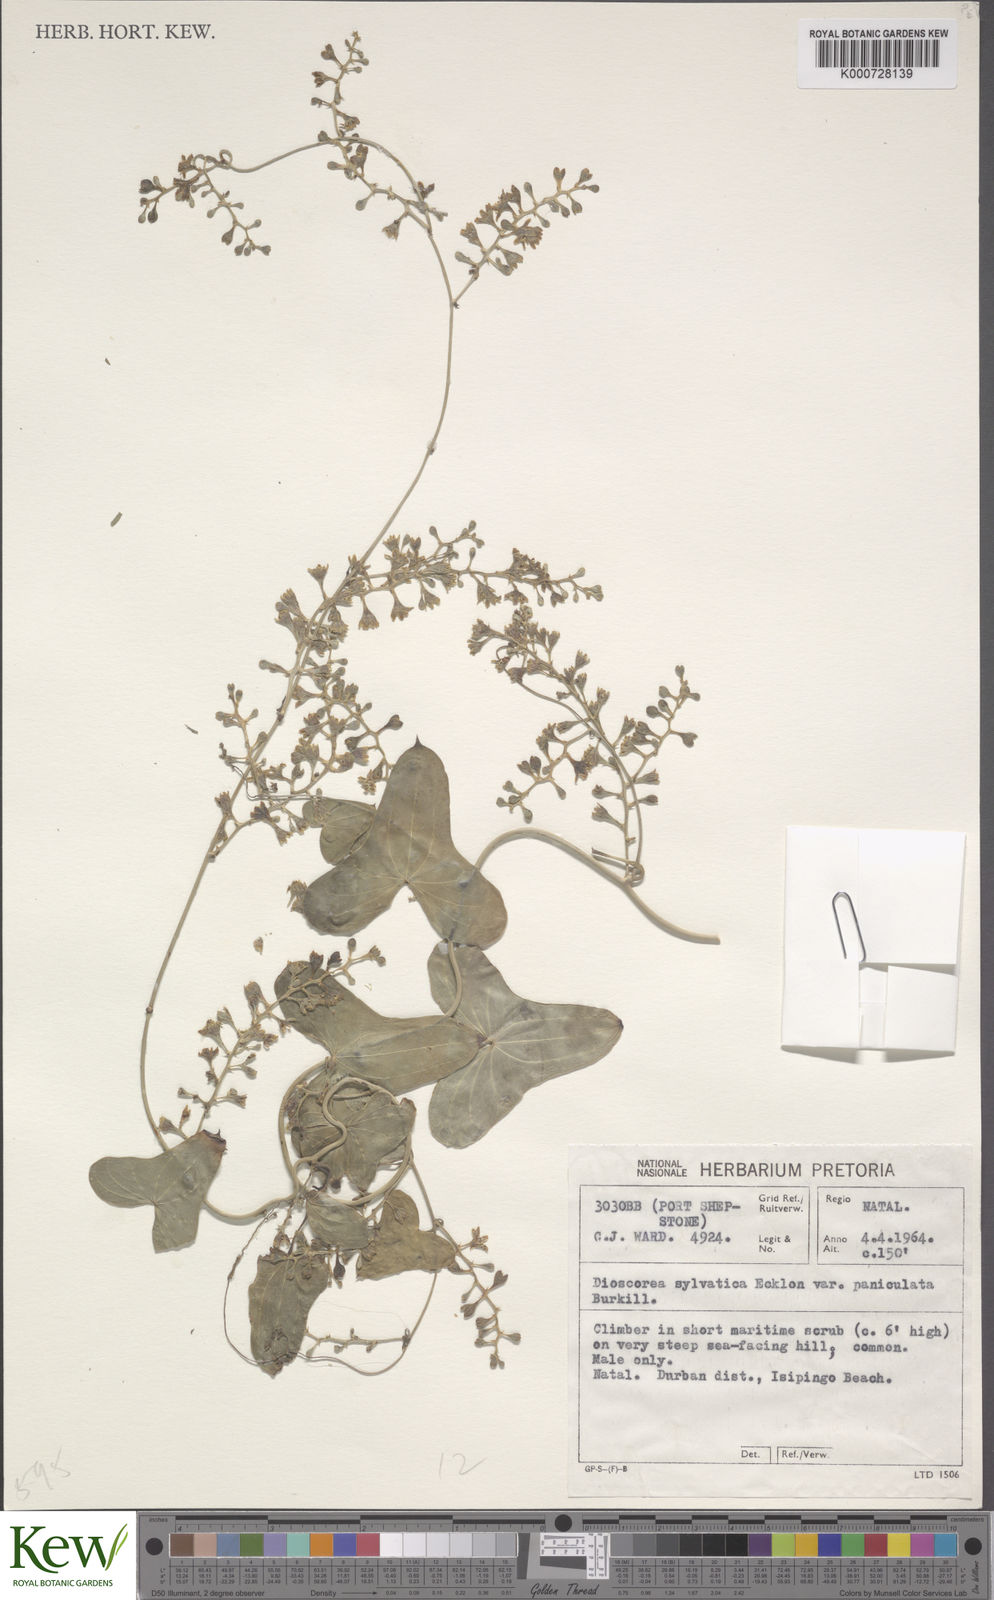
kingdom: Plantae
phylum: Tracheophyta
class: Liliopsida
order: Dioscoreales
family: Dioscoreaceae
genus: Dioscorea
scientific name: Dioscorea sylvatica
